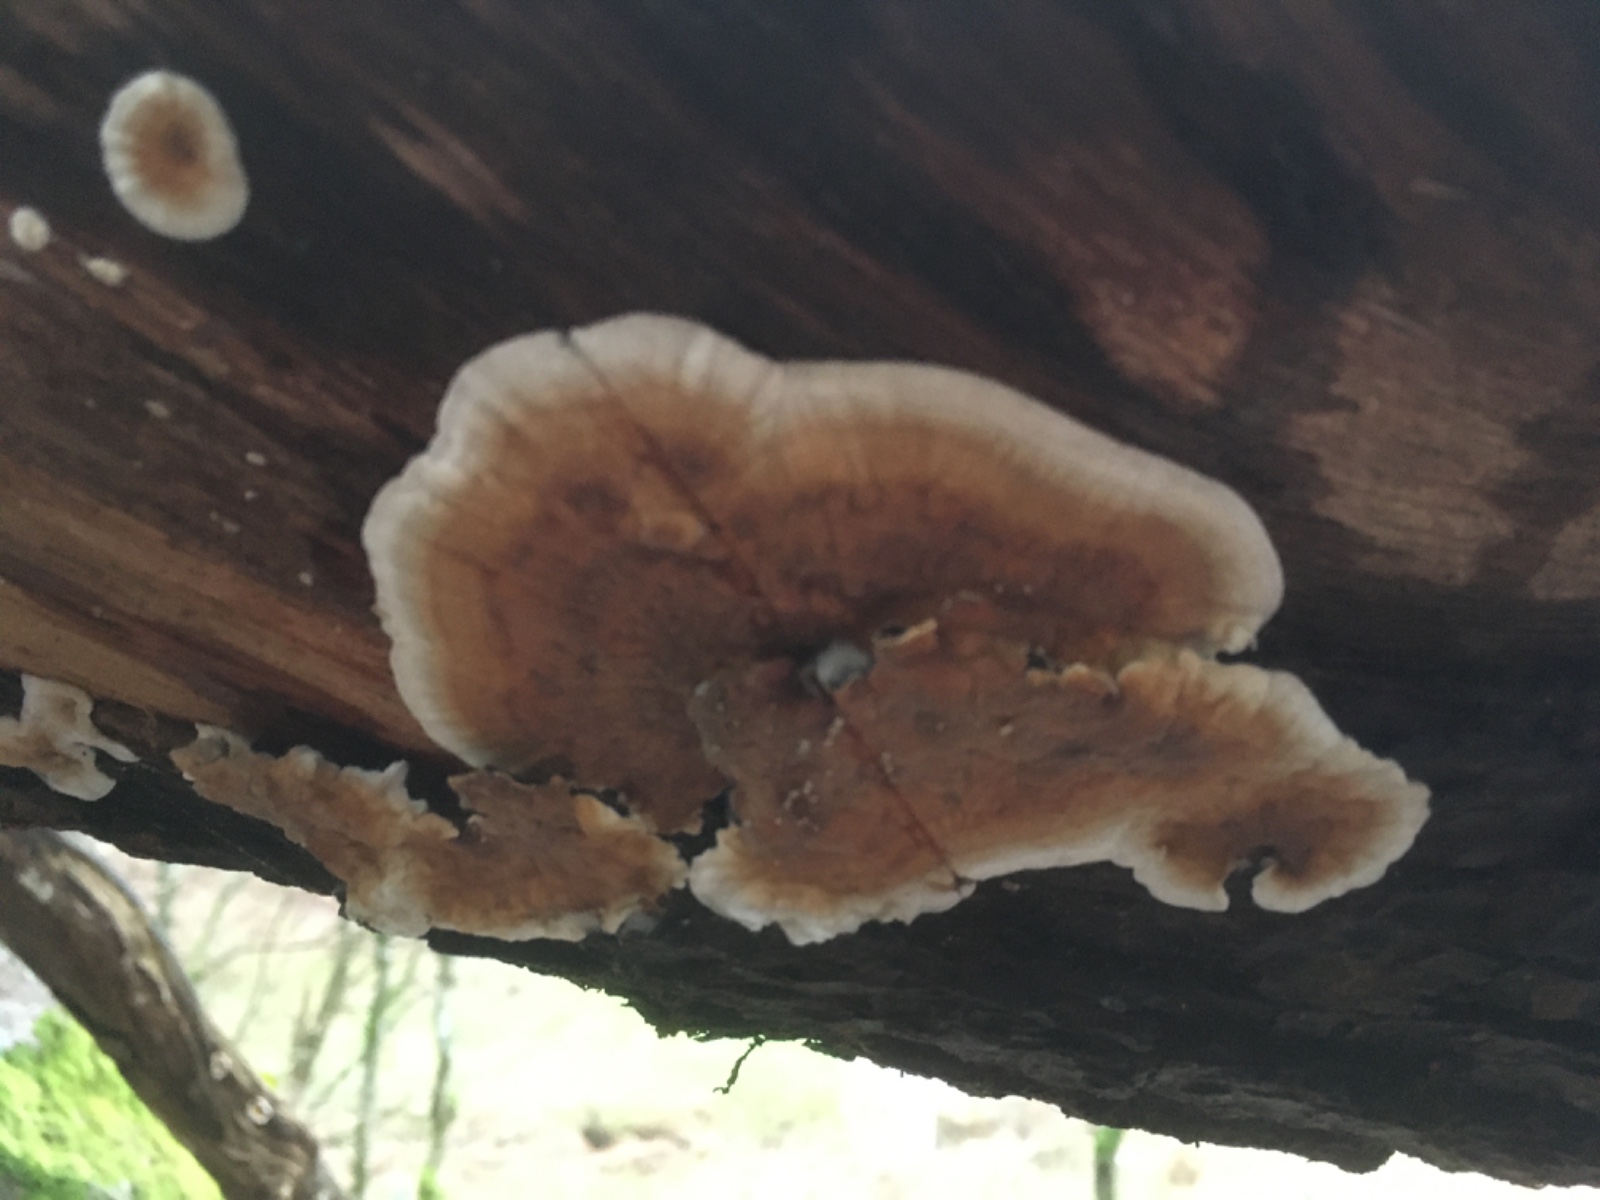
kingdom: Fungi
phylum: Basidiomycota
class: Agaricomycetes
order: Russulales
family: Stereaceae
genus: Stereum
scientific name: Stereum
